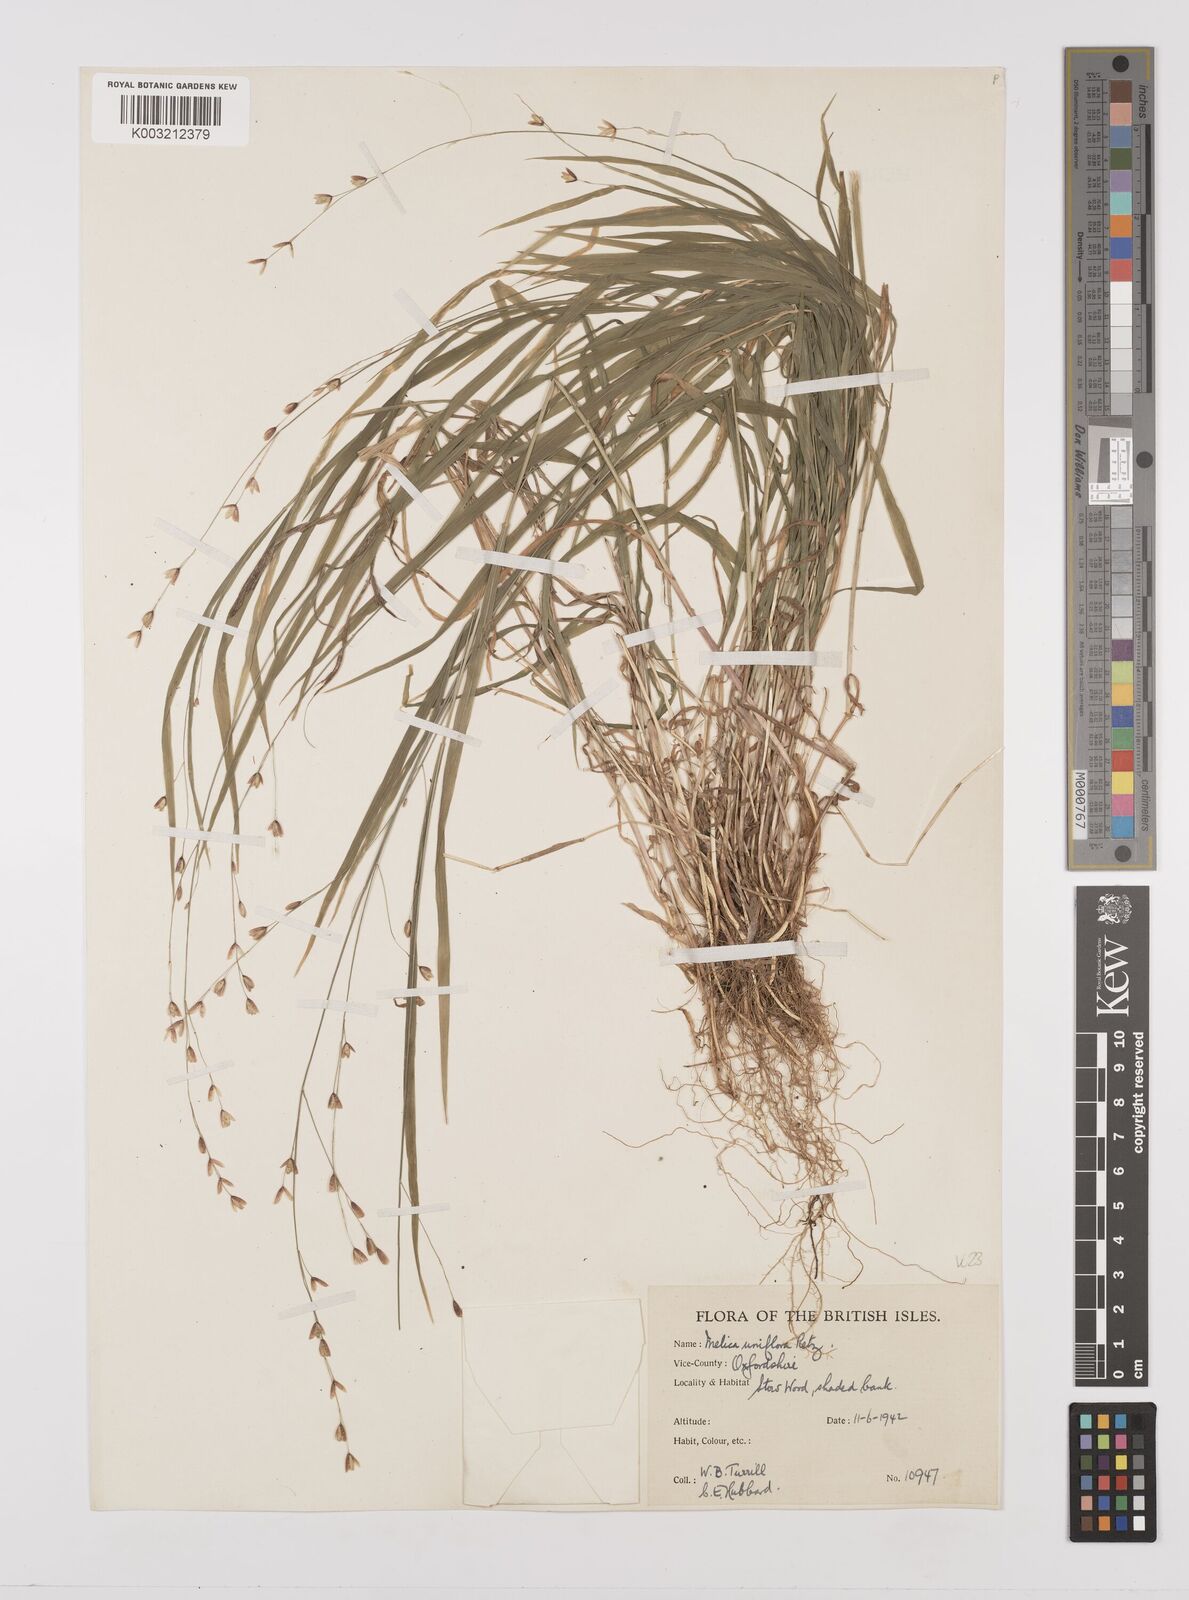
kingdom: Plantae
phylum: Tracheophyta
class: Liliopsida
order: Poales
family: Poaceae
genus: Melica
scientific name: Melica uniflora
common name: Wood melick
